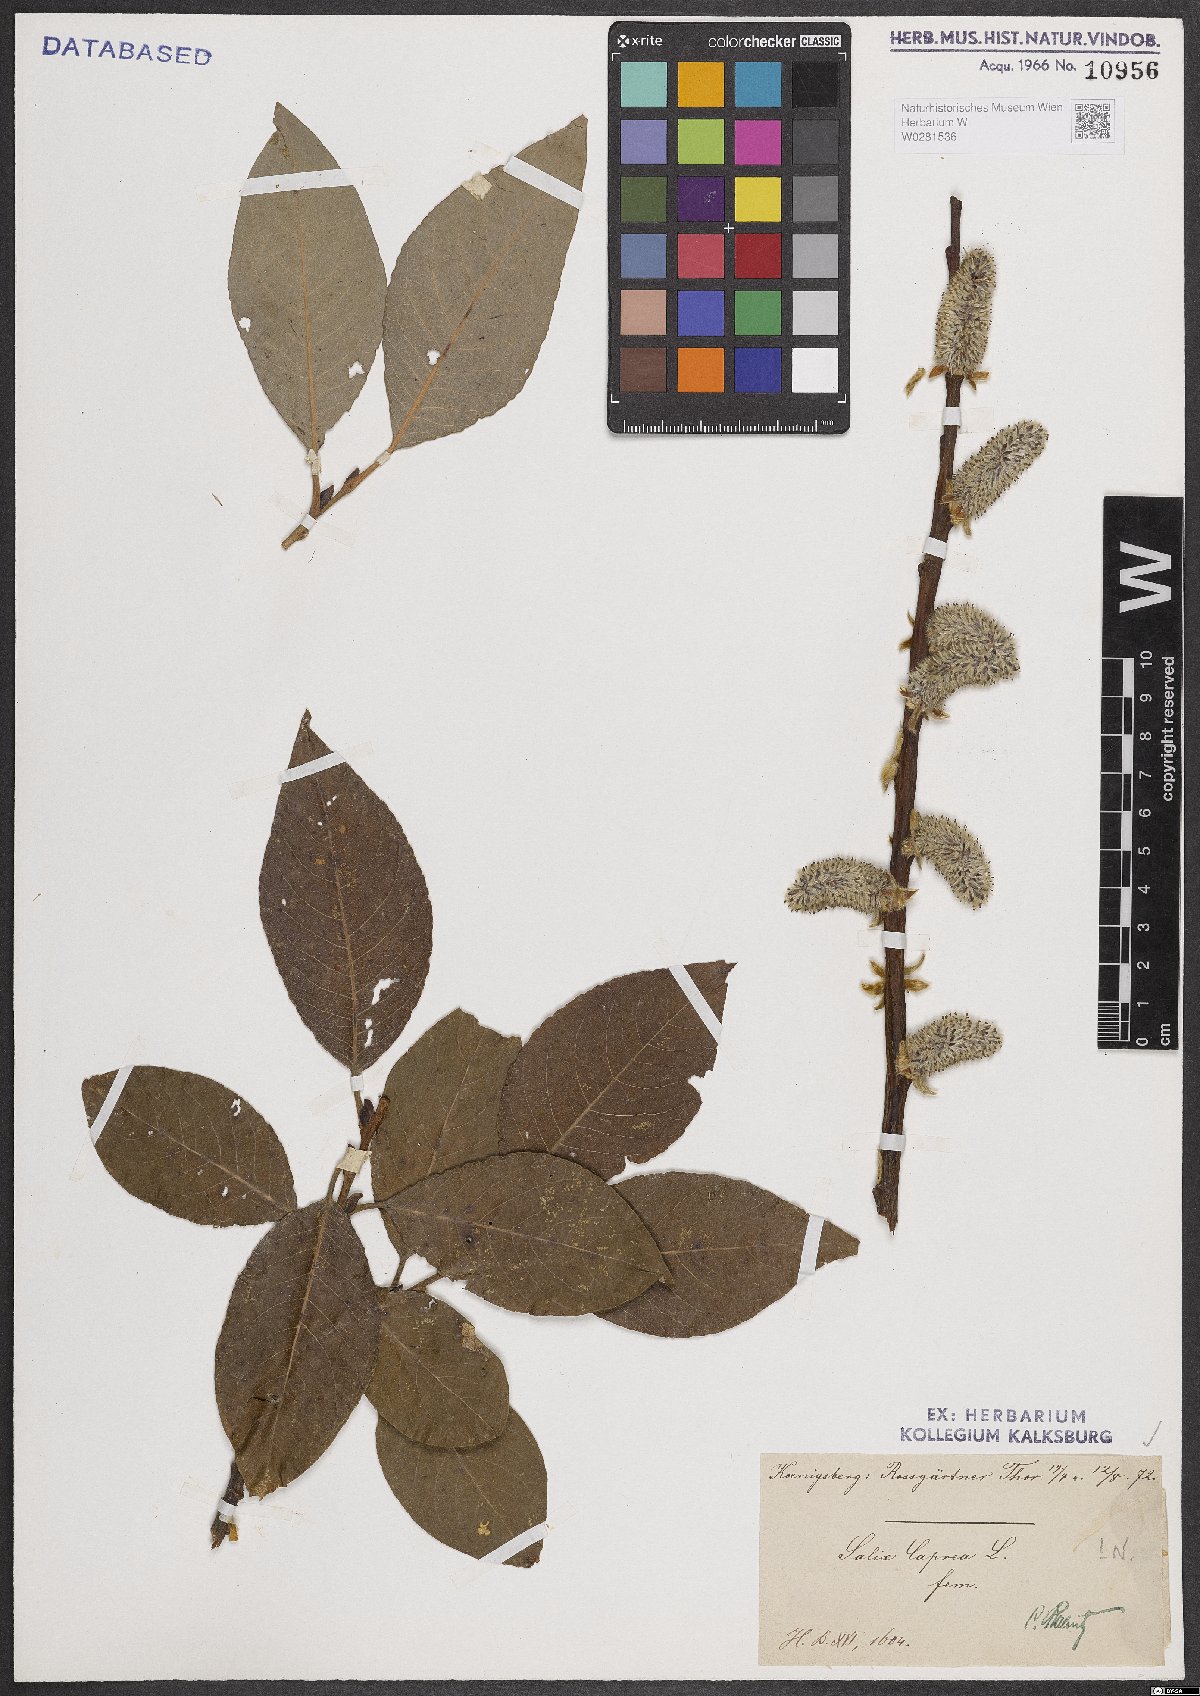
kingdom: Plantae
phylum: Tracheophyta
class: Magnoliopsida
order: Malpighiales
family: Salicaceae
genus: Salix
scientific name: Salix caprea
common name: Goat willow
